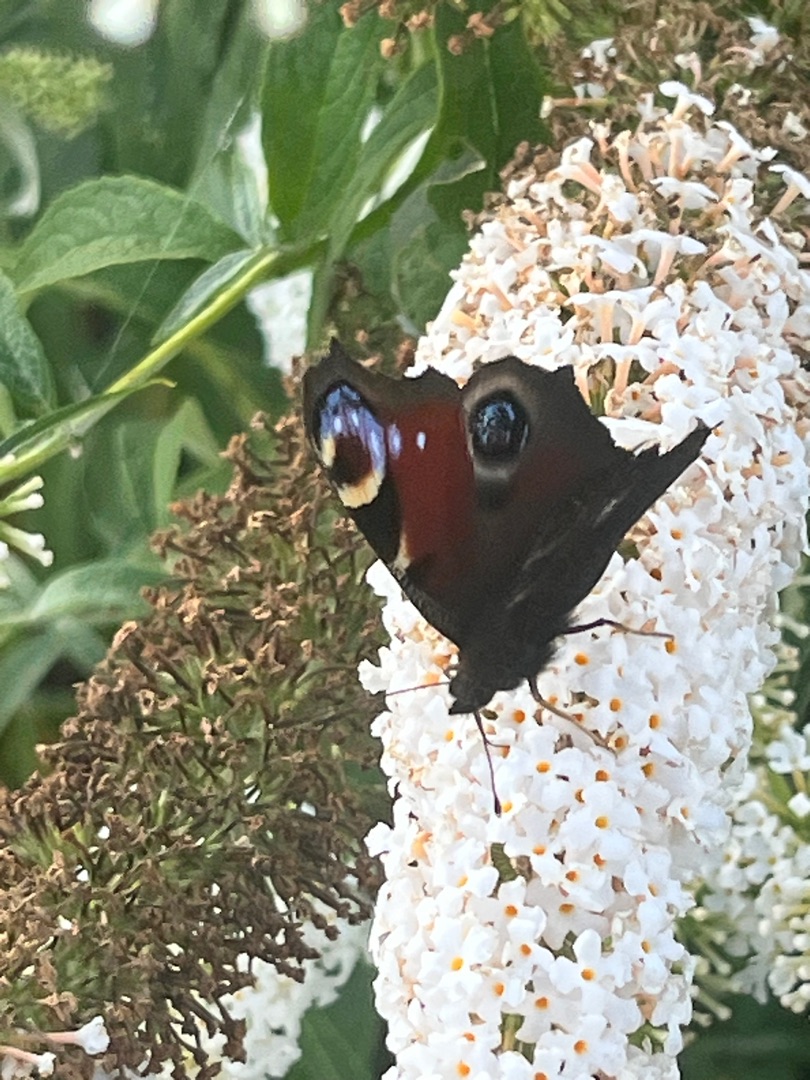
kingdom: Animalia
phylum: Arthropoda
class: Insecta
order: Lepidoptera
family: Nymphalidae
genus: Aglais
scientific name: Aglais io
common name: Dagpåfugleøje
